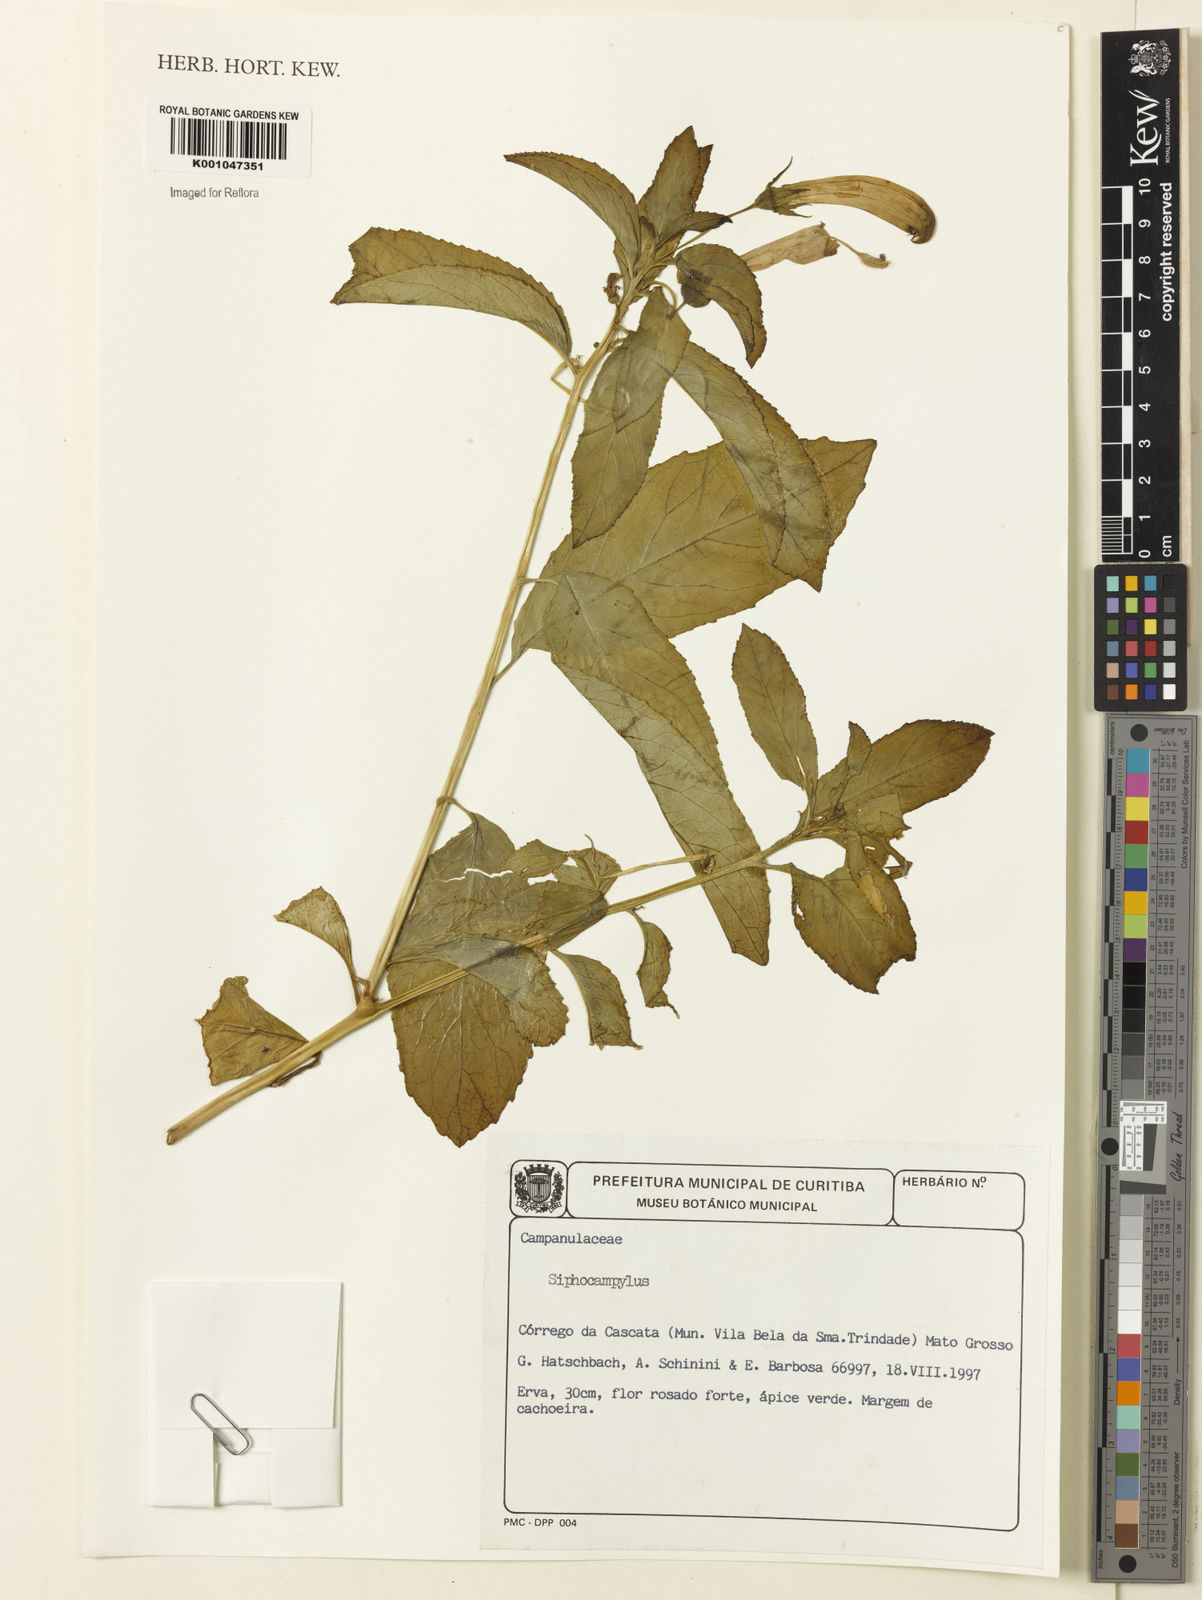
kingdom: Plantae
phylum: Tracheophyta
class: Magnoliopsida
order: Asterales
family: Campanulaceae
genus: Siphocampylus
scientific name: Siphocampylus
